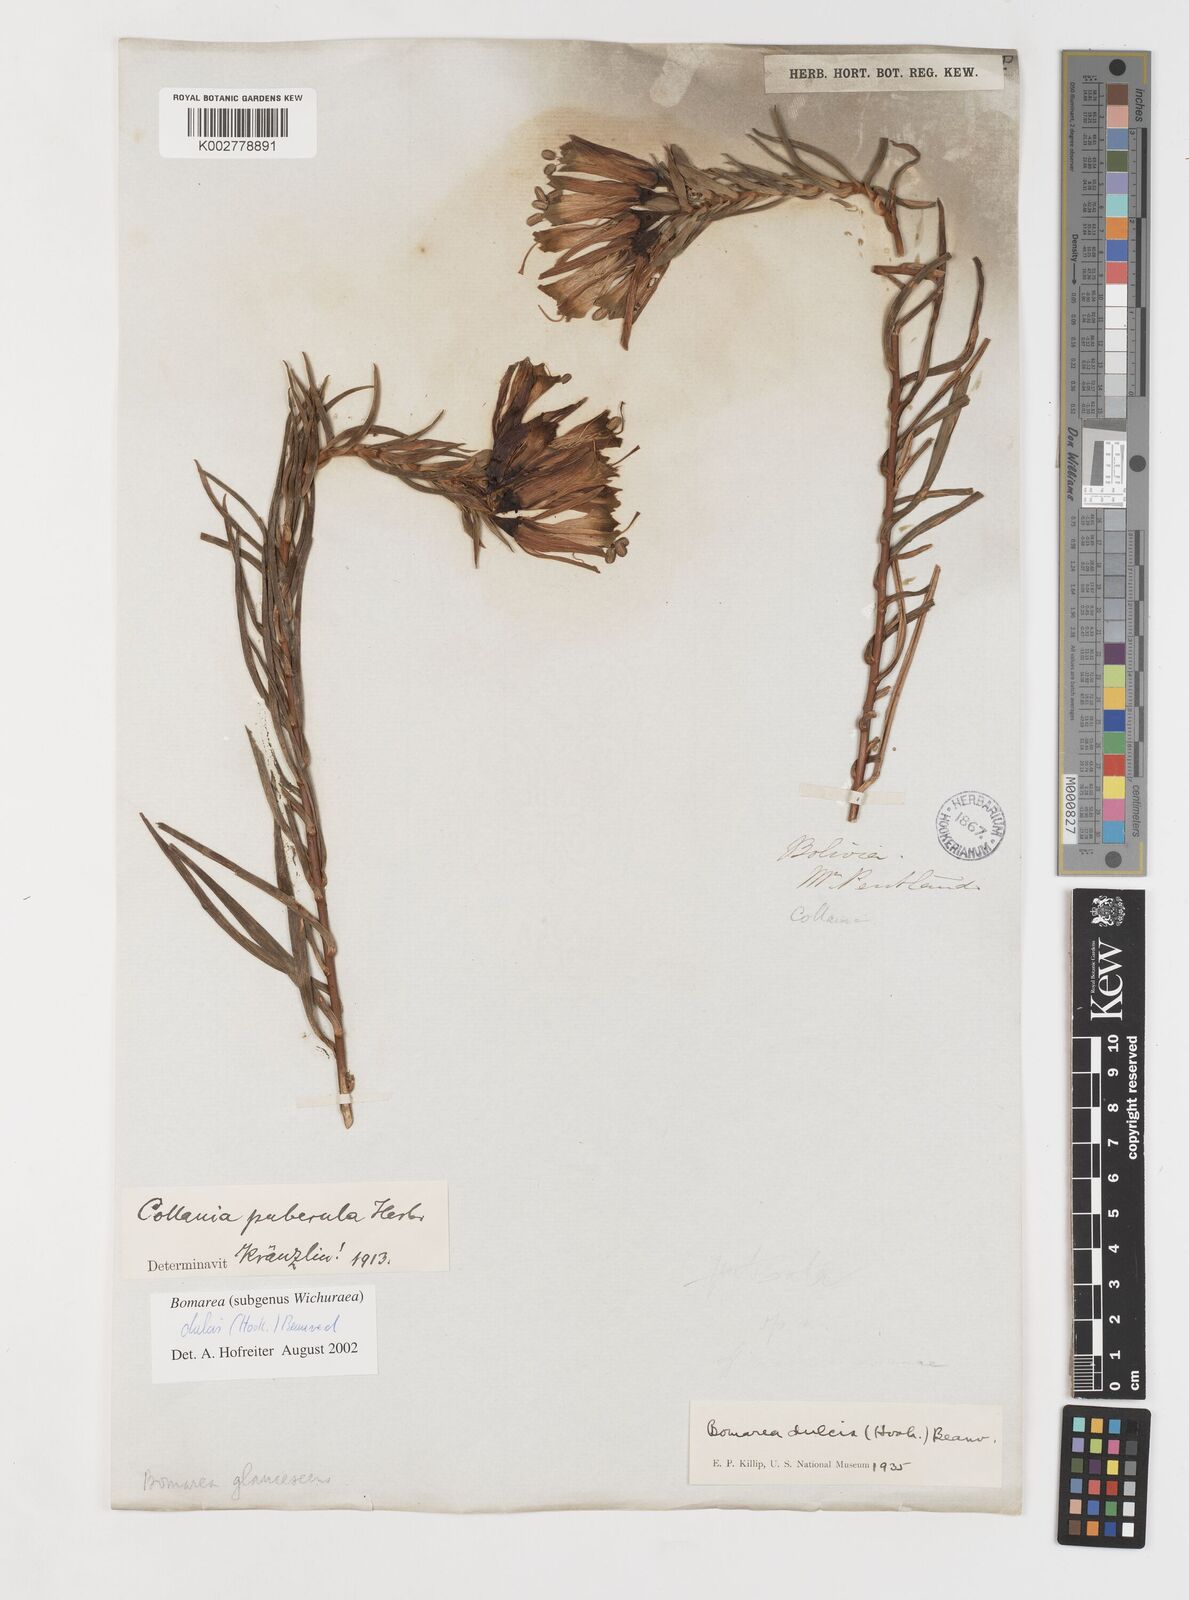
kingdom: Plantae
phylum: Tracheophyta
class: Liliopsida
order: Liliales
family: Alstroemeriaceae
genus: Bomarea
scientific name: Bomarea dulcis
